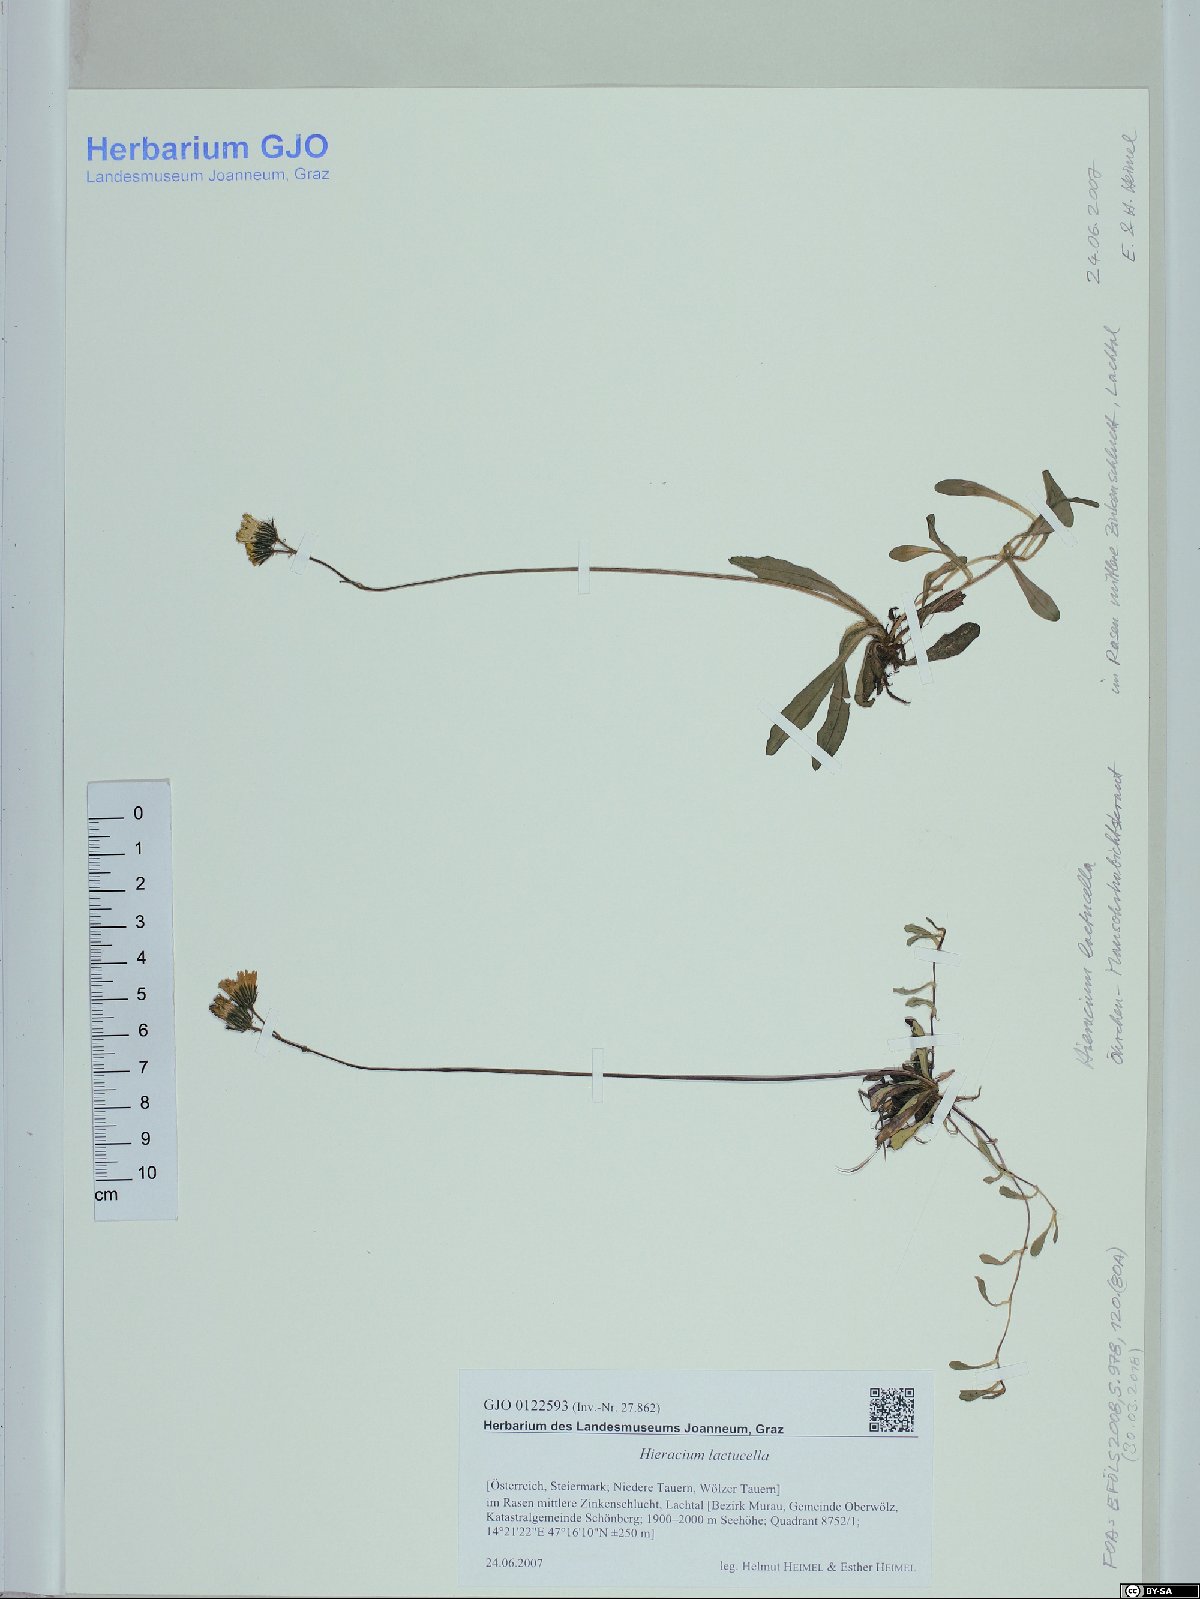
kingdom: Plantae
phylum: Tracheophyta
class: Magnoliopsida
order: Asterales
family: Asteraceae
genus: Pilosella
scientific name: Pilosella lactucella
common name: Glaucous fox-and-cubs
